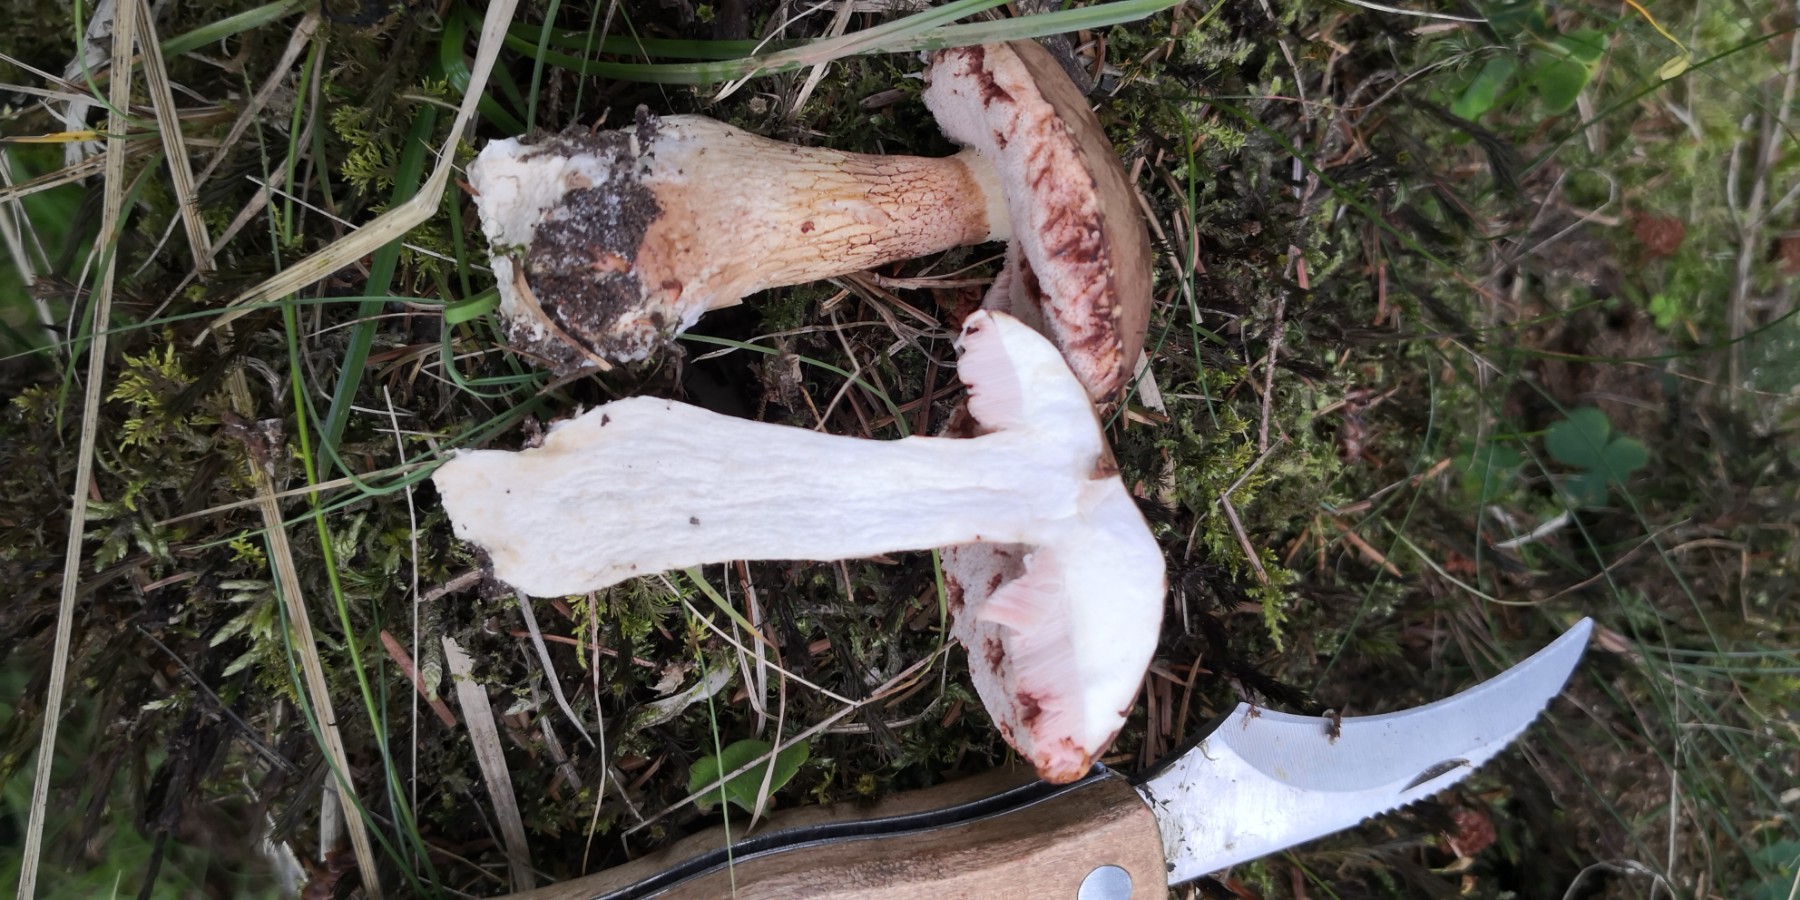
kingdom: Fungi
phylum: Basidiomycota
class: Agaricomycetes
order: Boletales
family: Boletaceae
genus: Tylopilus
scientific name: Tylopilus felleus
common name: galderørhat
